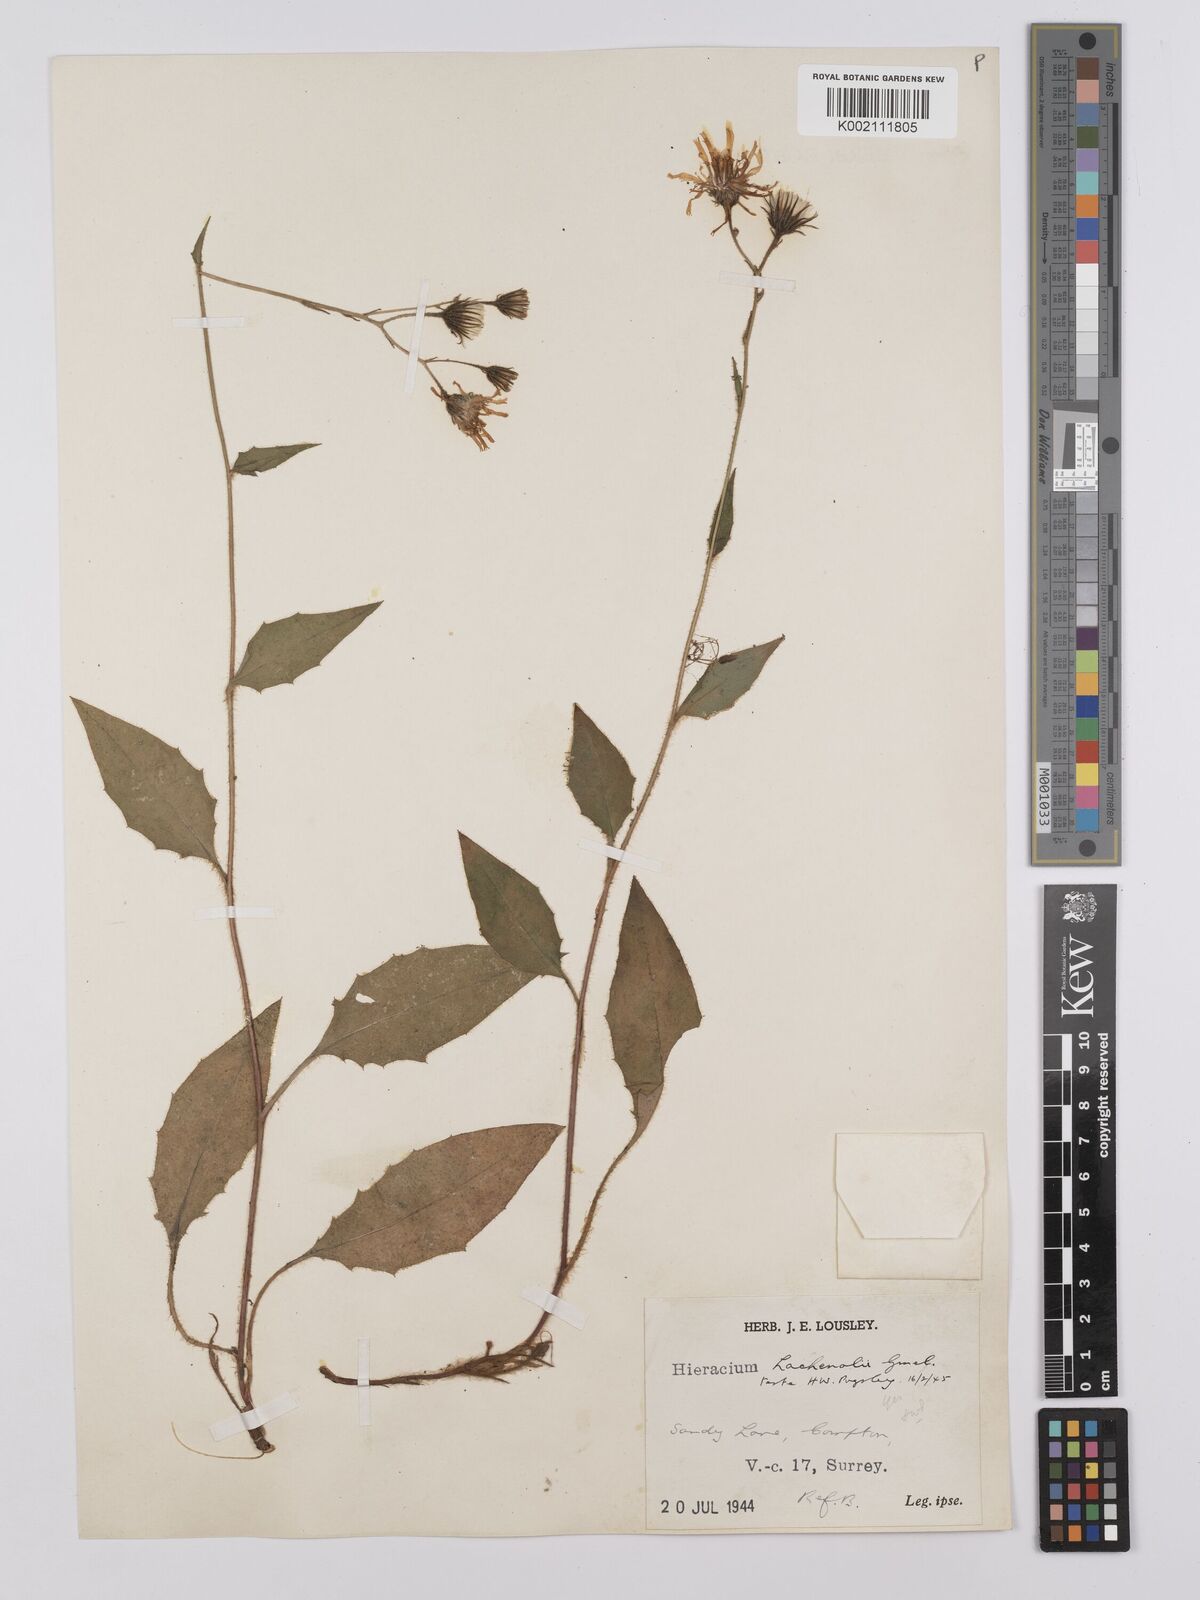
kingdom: Plantae
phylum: Tracheophyta
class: Magnoliopsida
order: Asterales
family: Asteraceae
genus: Hieracium
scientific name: Hieracium lachenalii
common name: Common hawkweed
